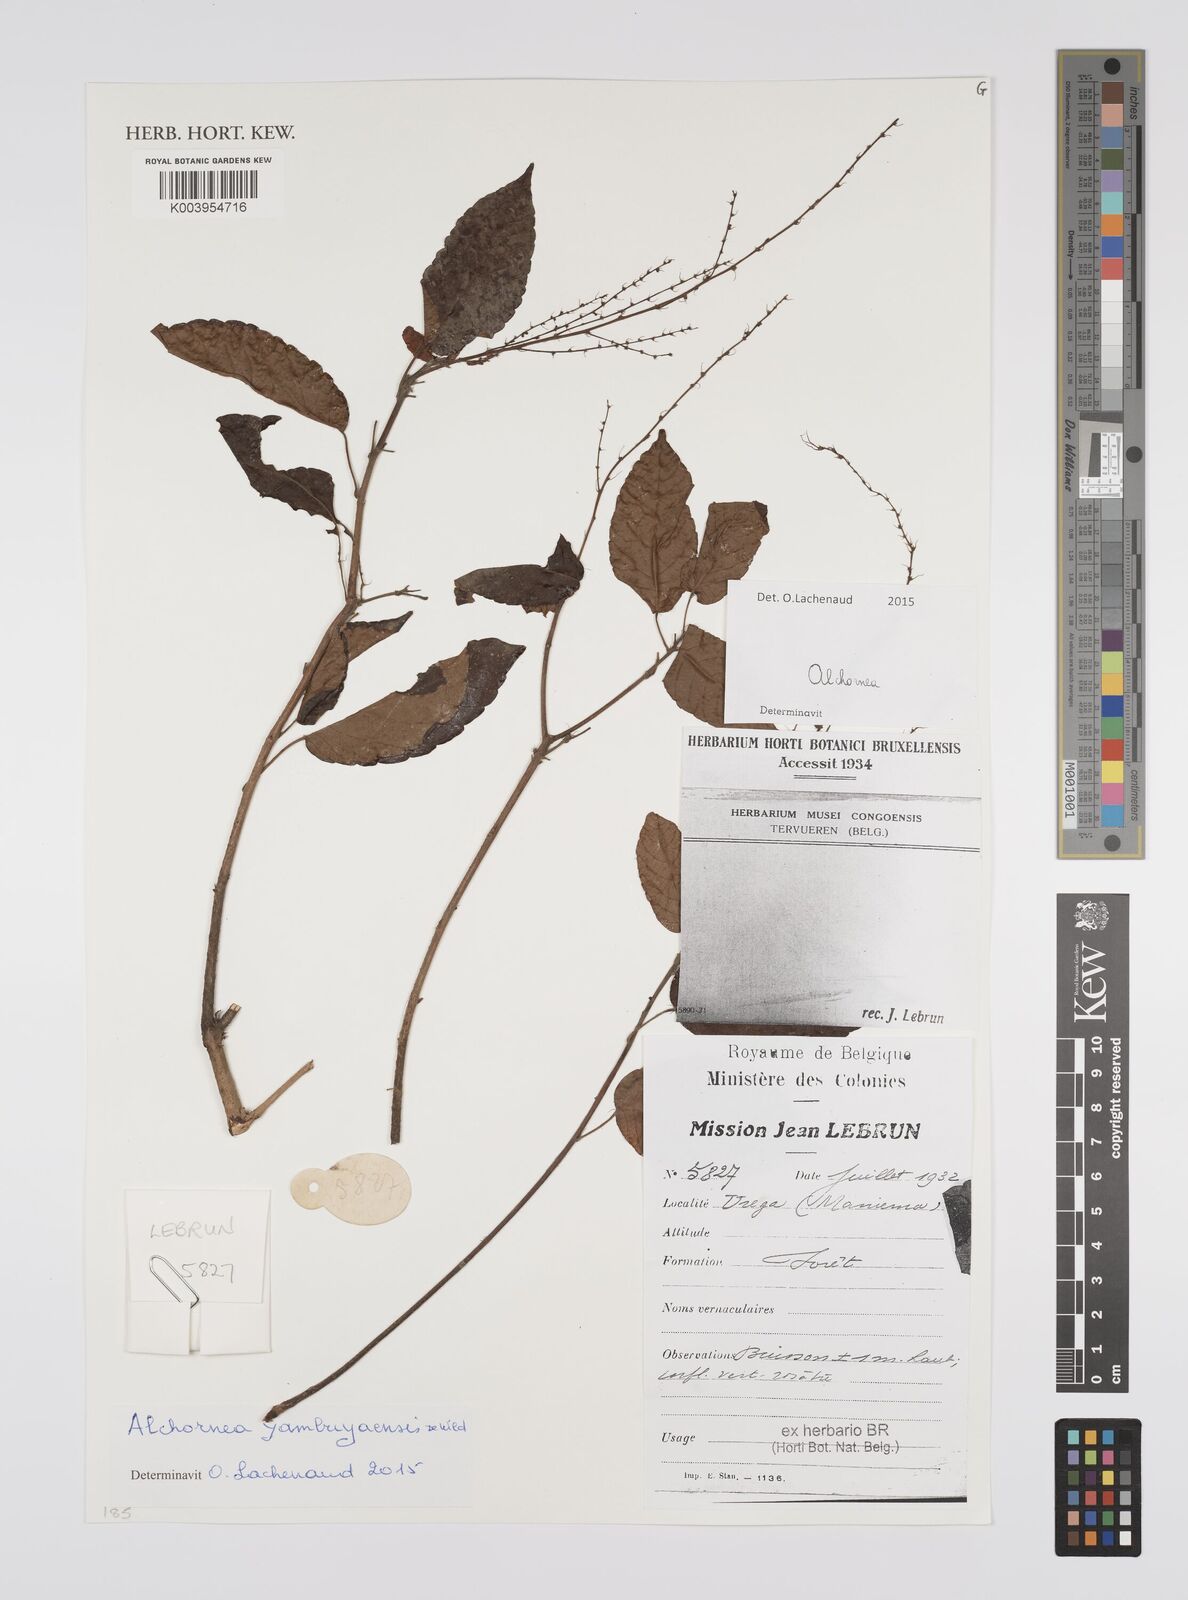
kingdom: Plantae
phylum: Tracheophyta
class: Magnoliopsida
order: Malpighiales
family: Euphorbiaceae
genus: Alchornea
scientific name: Alchornea yambuyaensis
